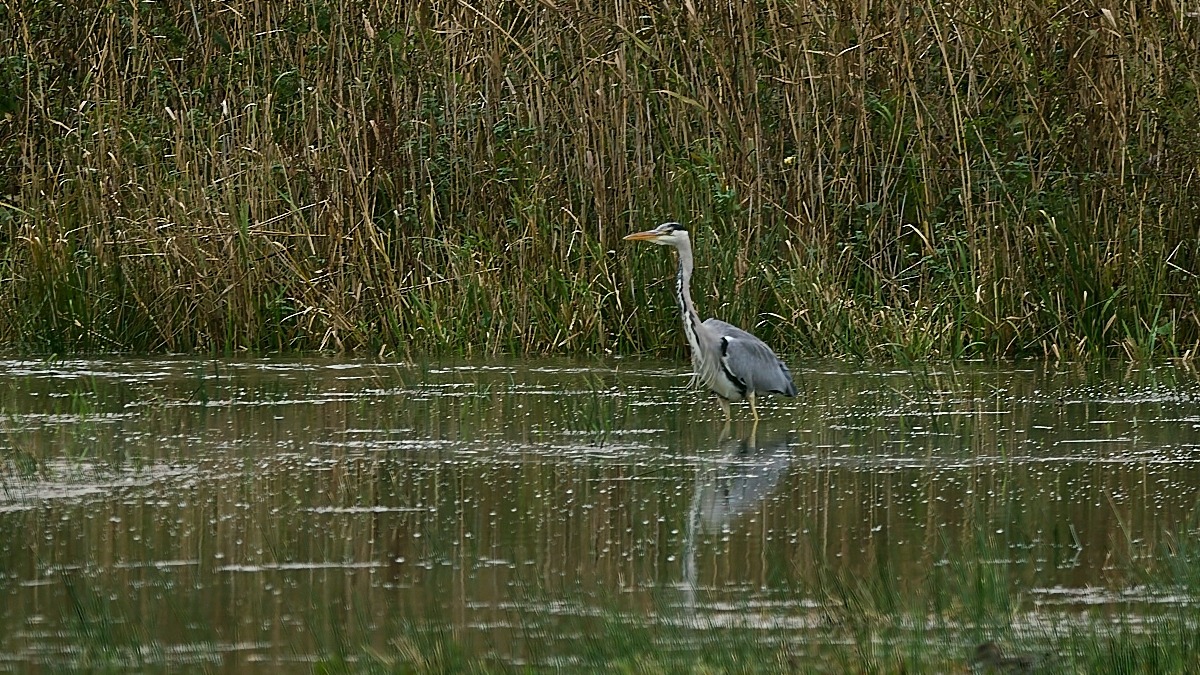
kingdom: Animalia
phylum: Chordata
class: Aves
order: Pelecaniformes
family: Ardeidae
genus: Ardea
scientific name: Ardea cinerea
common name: Fiskehejre
